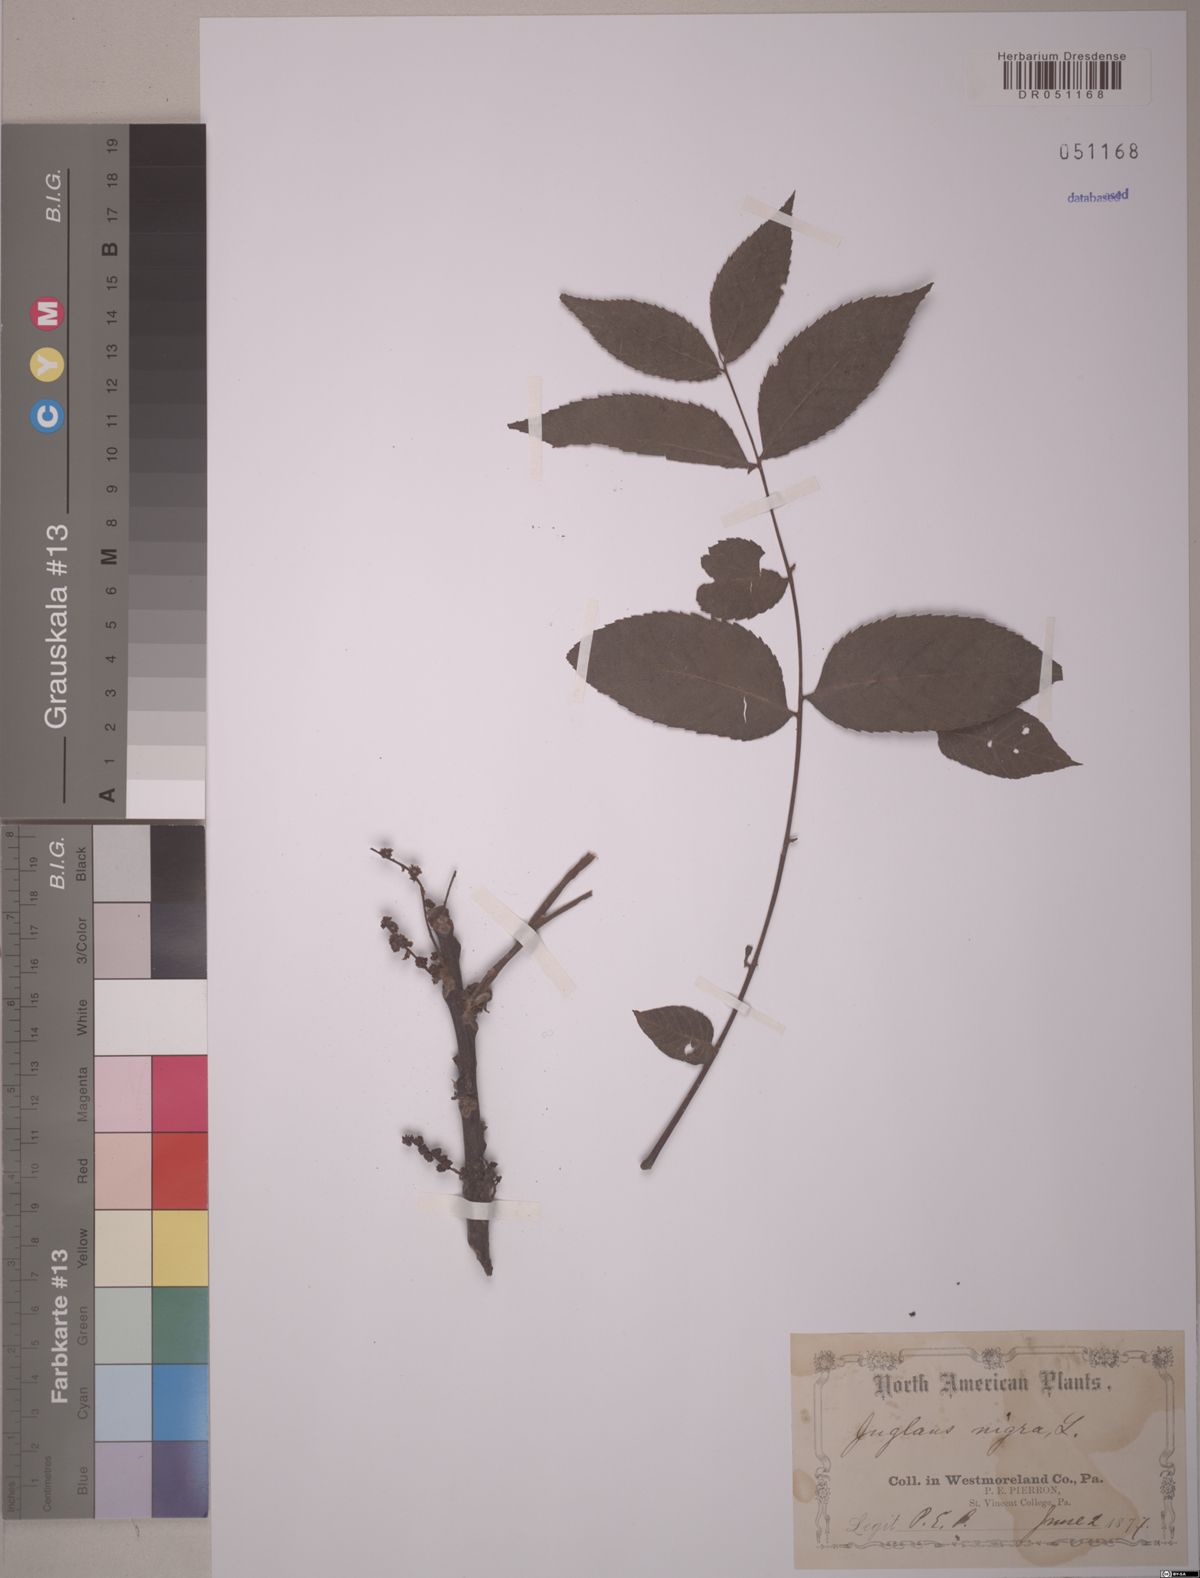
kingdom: Plantae
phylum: Tracheophyta
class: Magnoliopsida
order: Fagales
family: Juglandaceae
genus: Juglans
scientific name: Juglans nigra
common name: Black walnut
